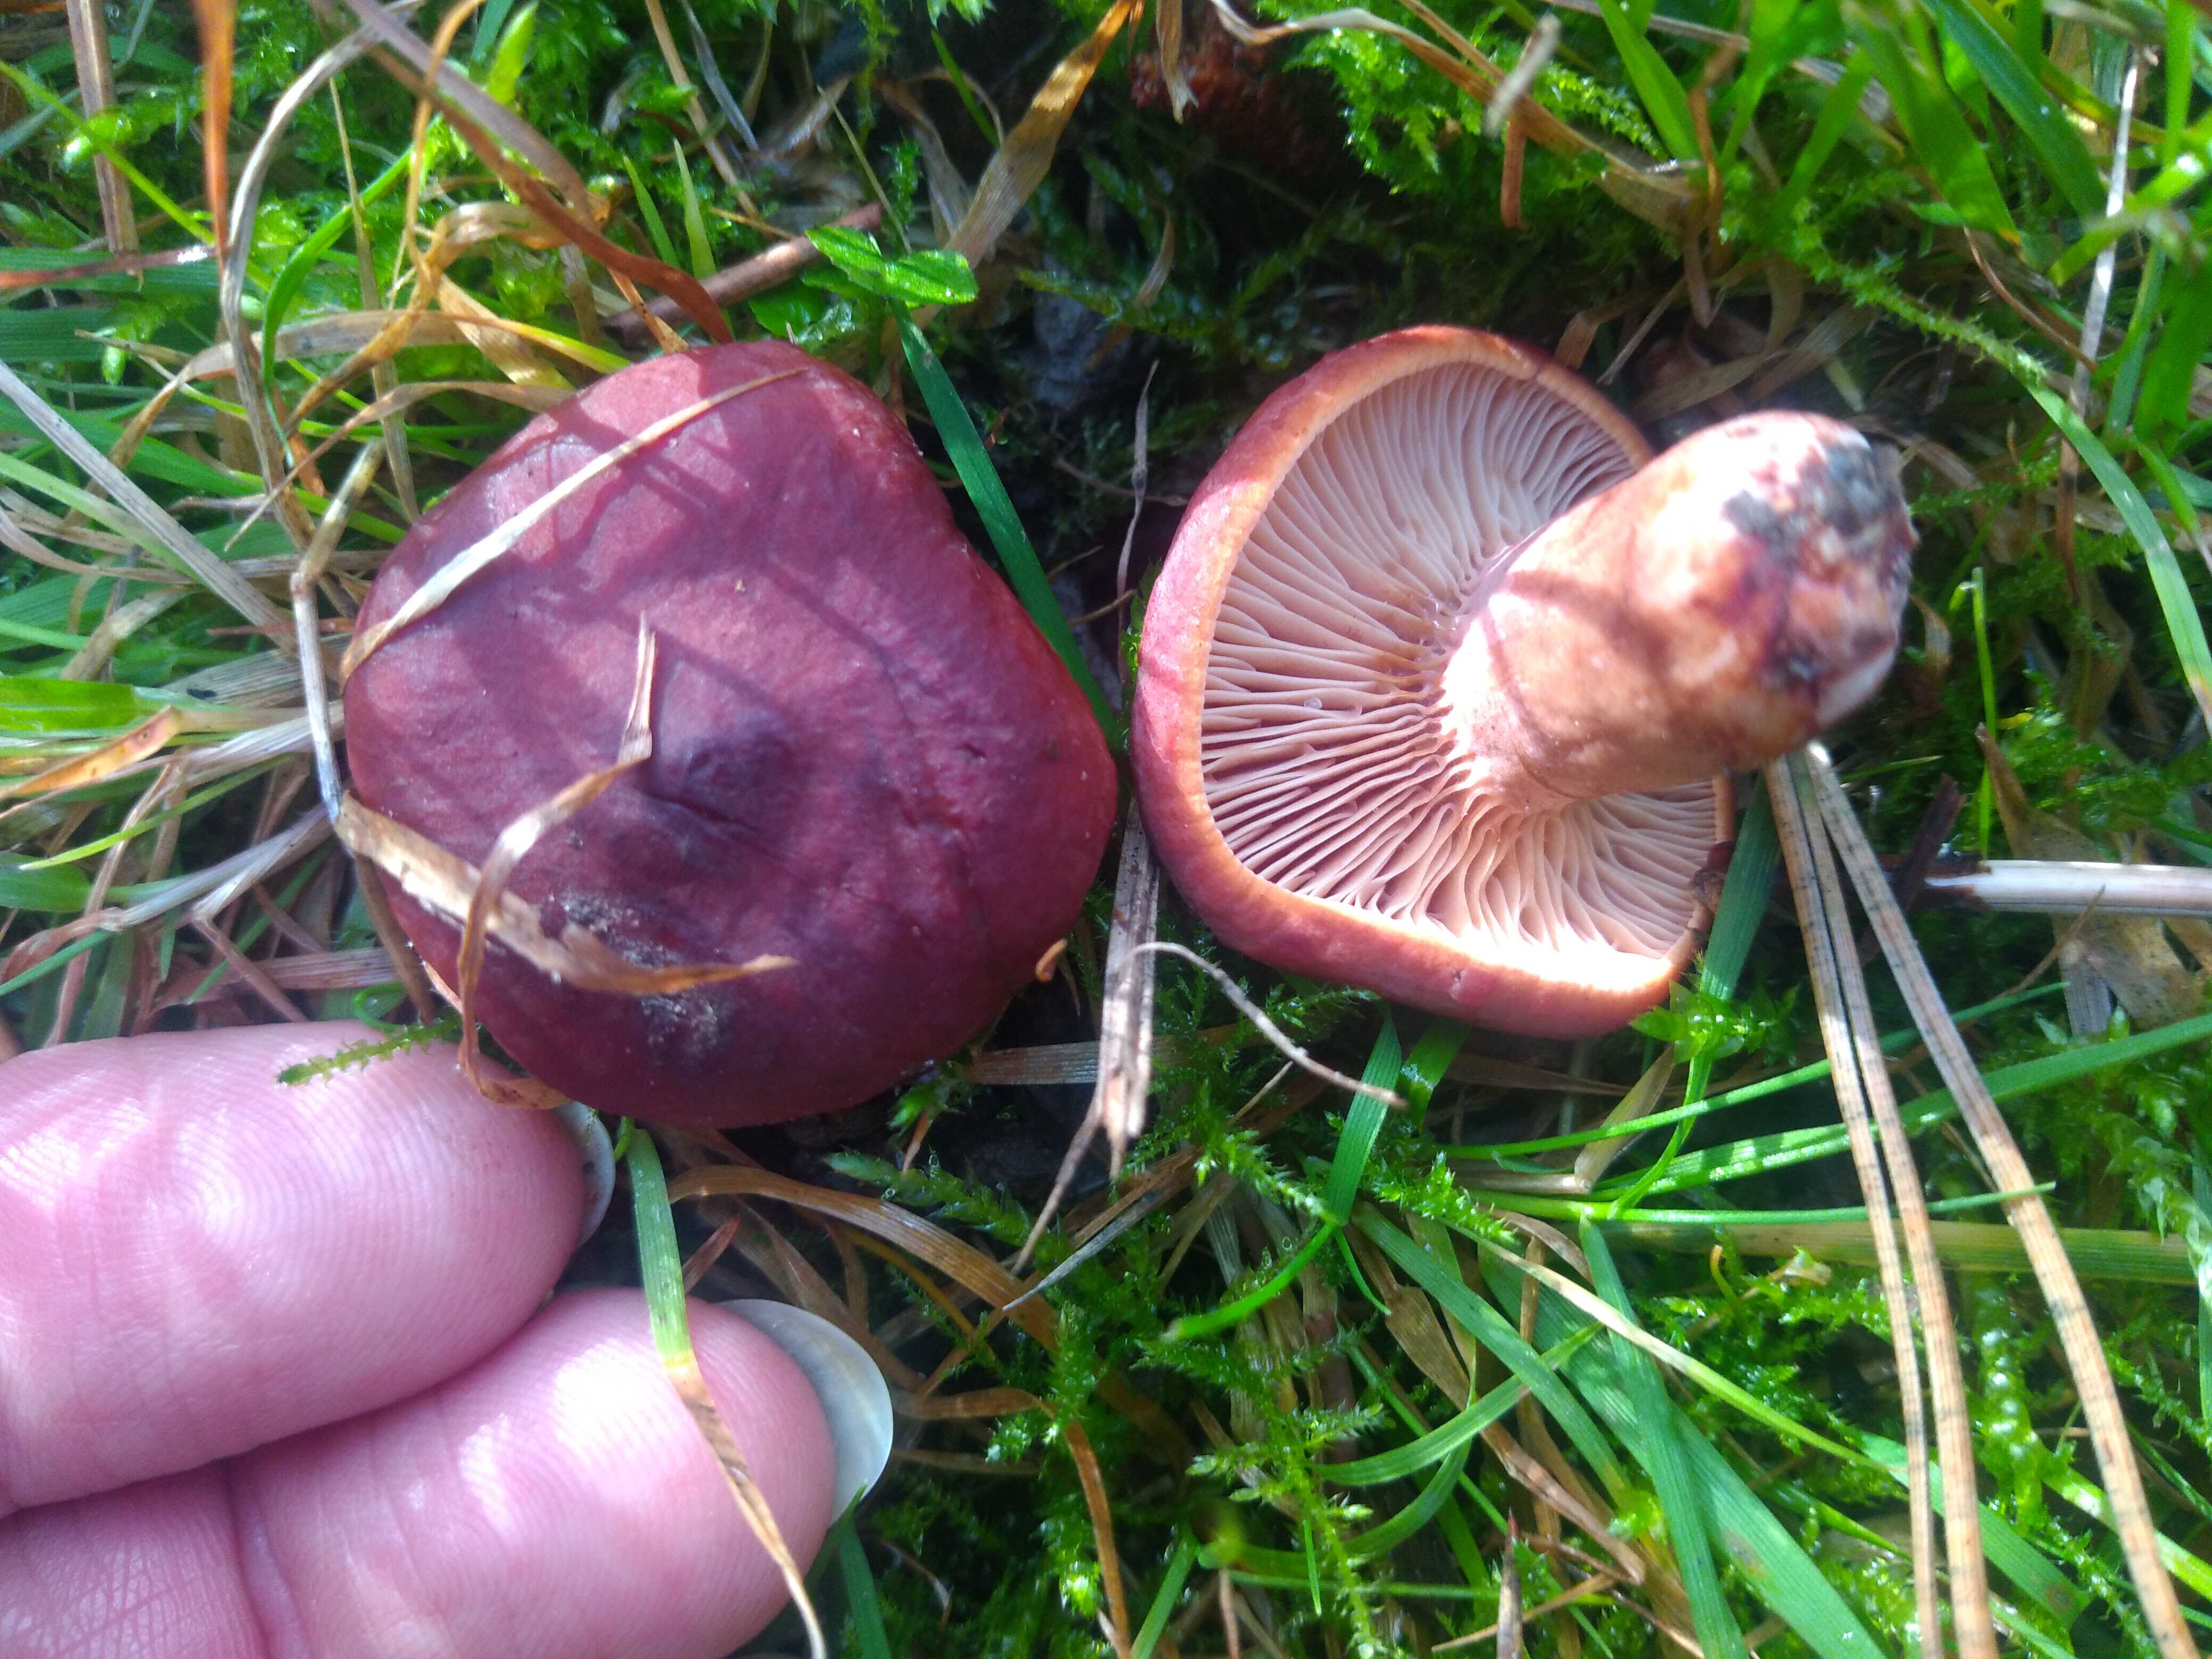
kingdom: Fungi
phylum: Basidiomycota
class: Agaricomycetes
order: Russulales
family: Russulaceae
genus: Lactarius
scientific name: Lactarius fulvissimus
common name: ræve-mælkehat
